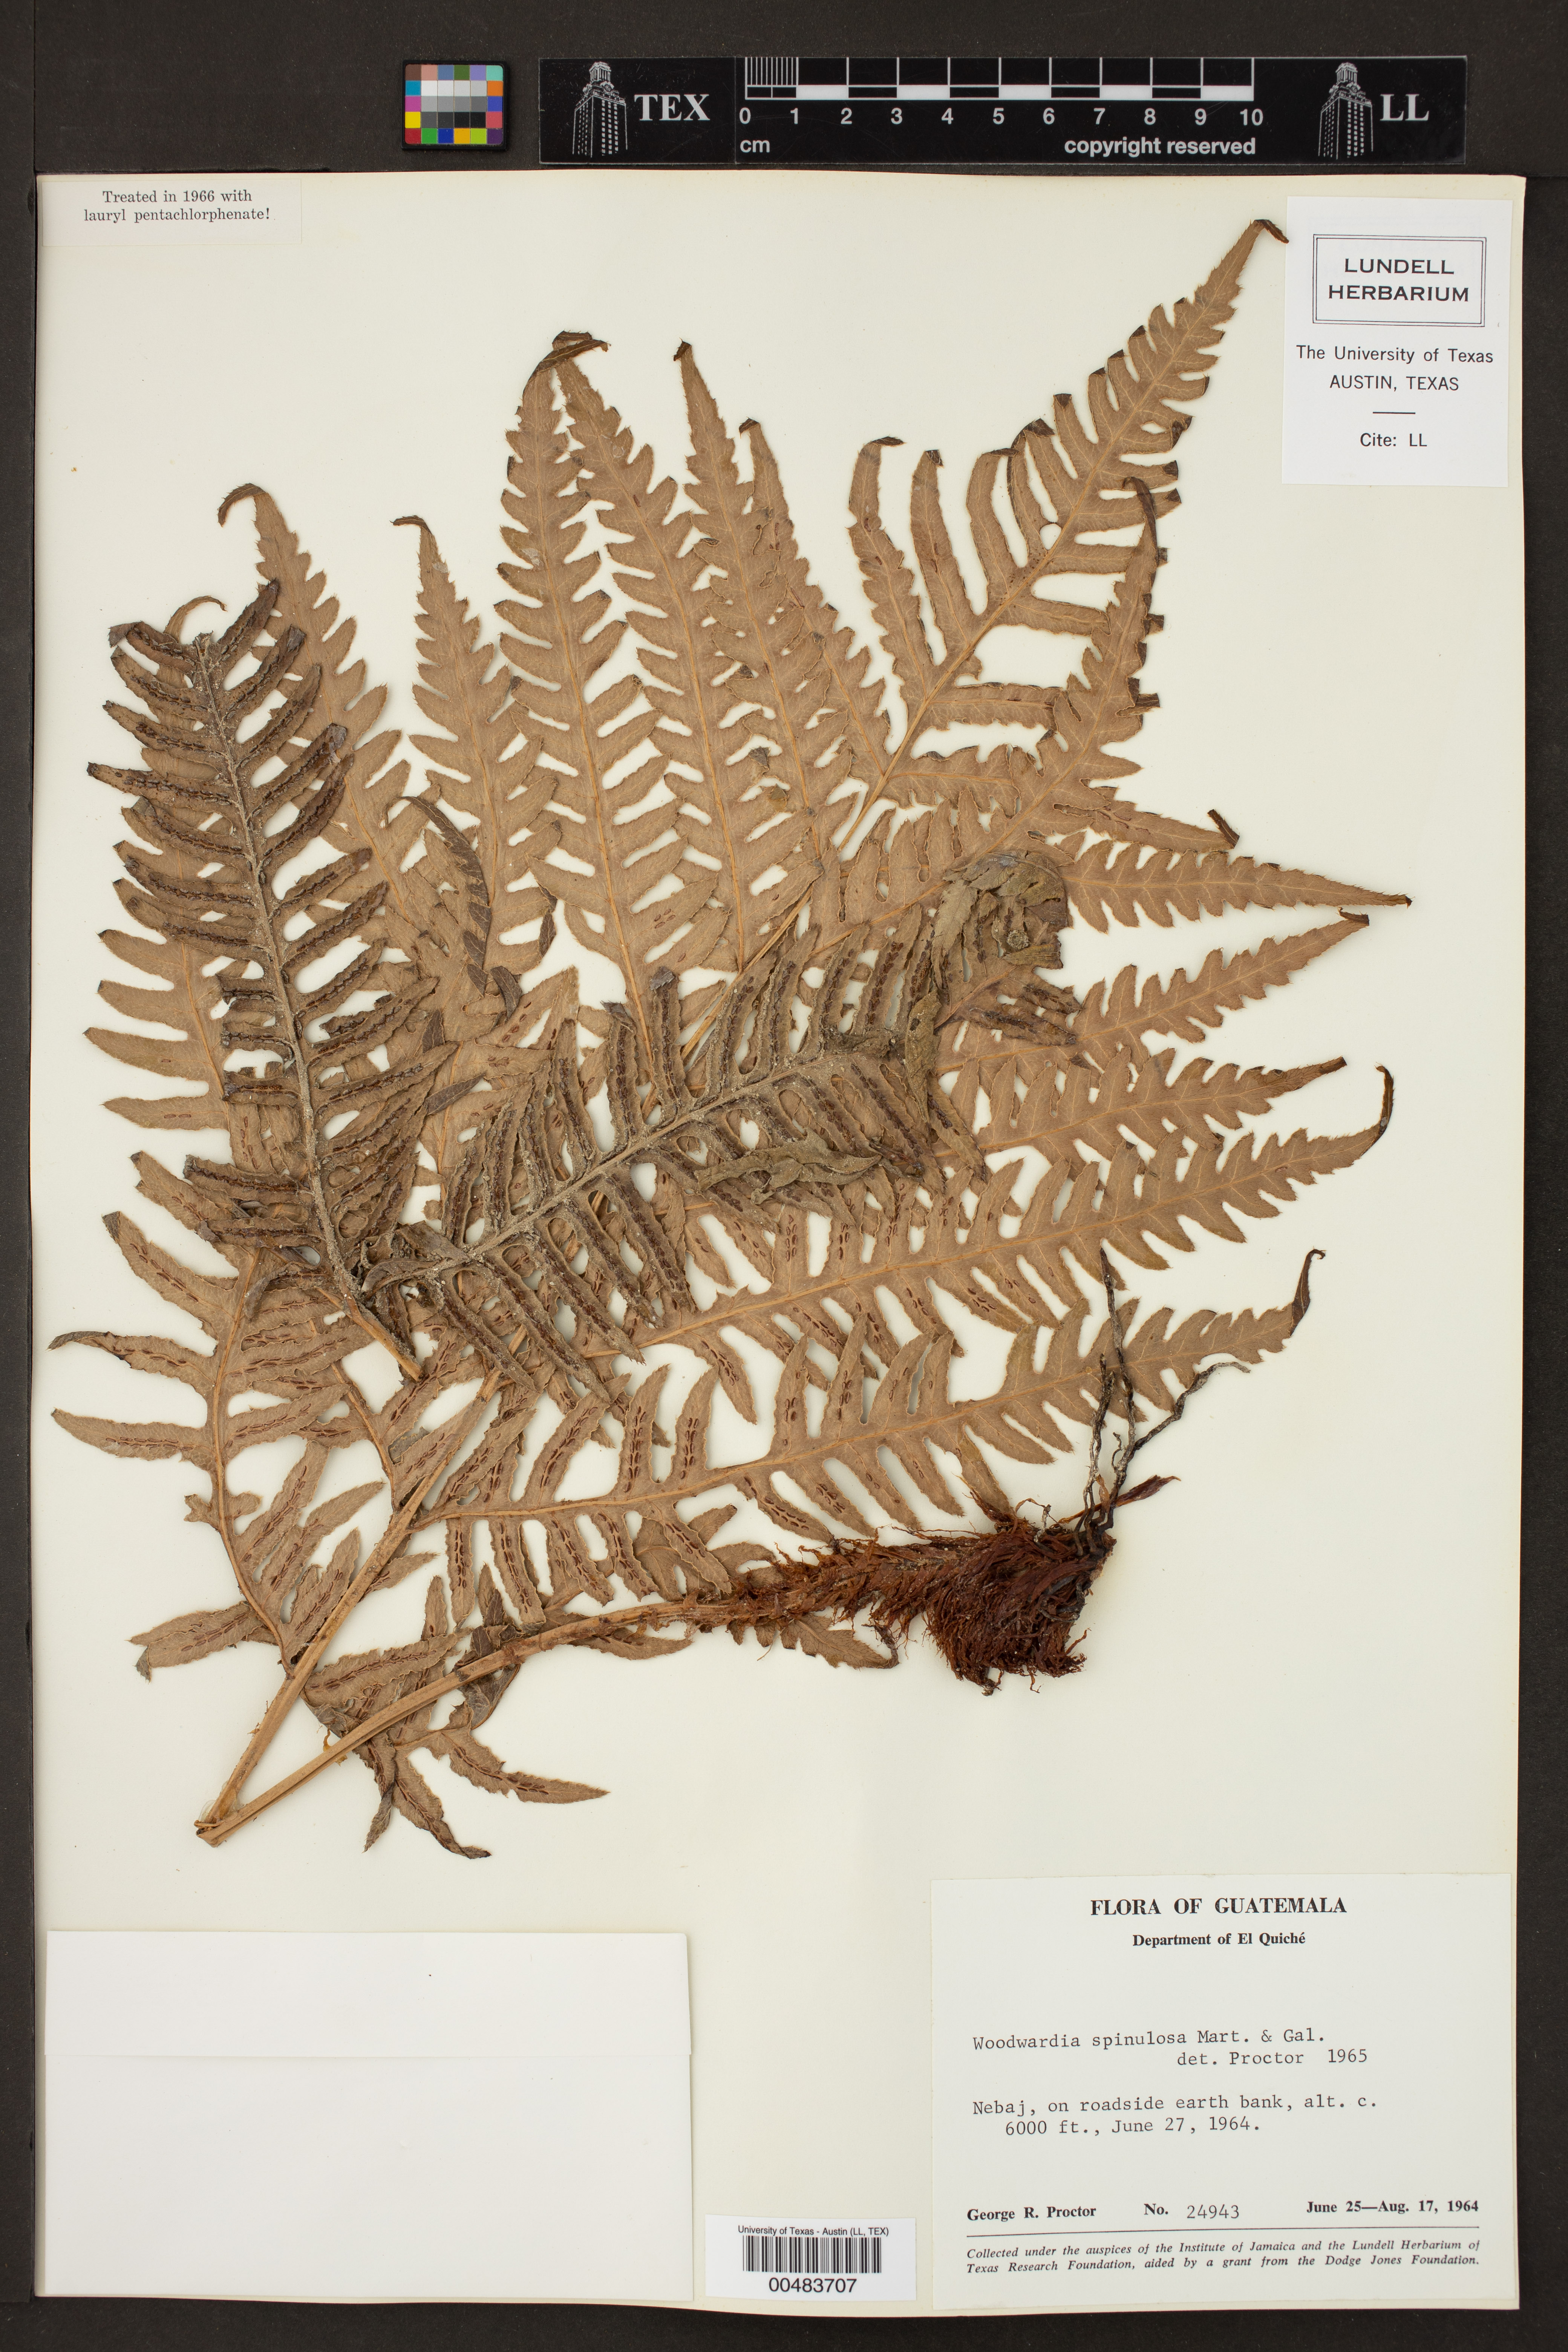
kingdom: Plantae
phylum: Tracheophyta
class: Polypodiopsida
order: Polypodiales
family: Blechnaceae
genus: Woodwardia
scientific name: Woodwardia spinulosa
